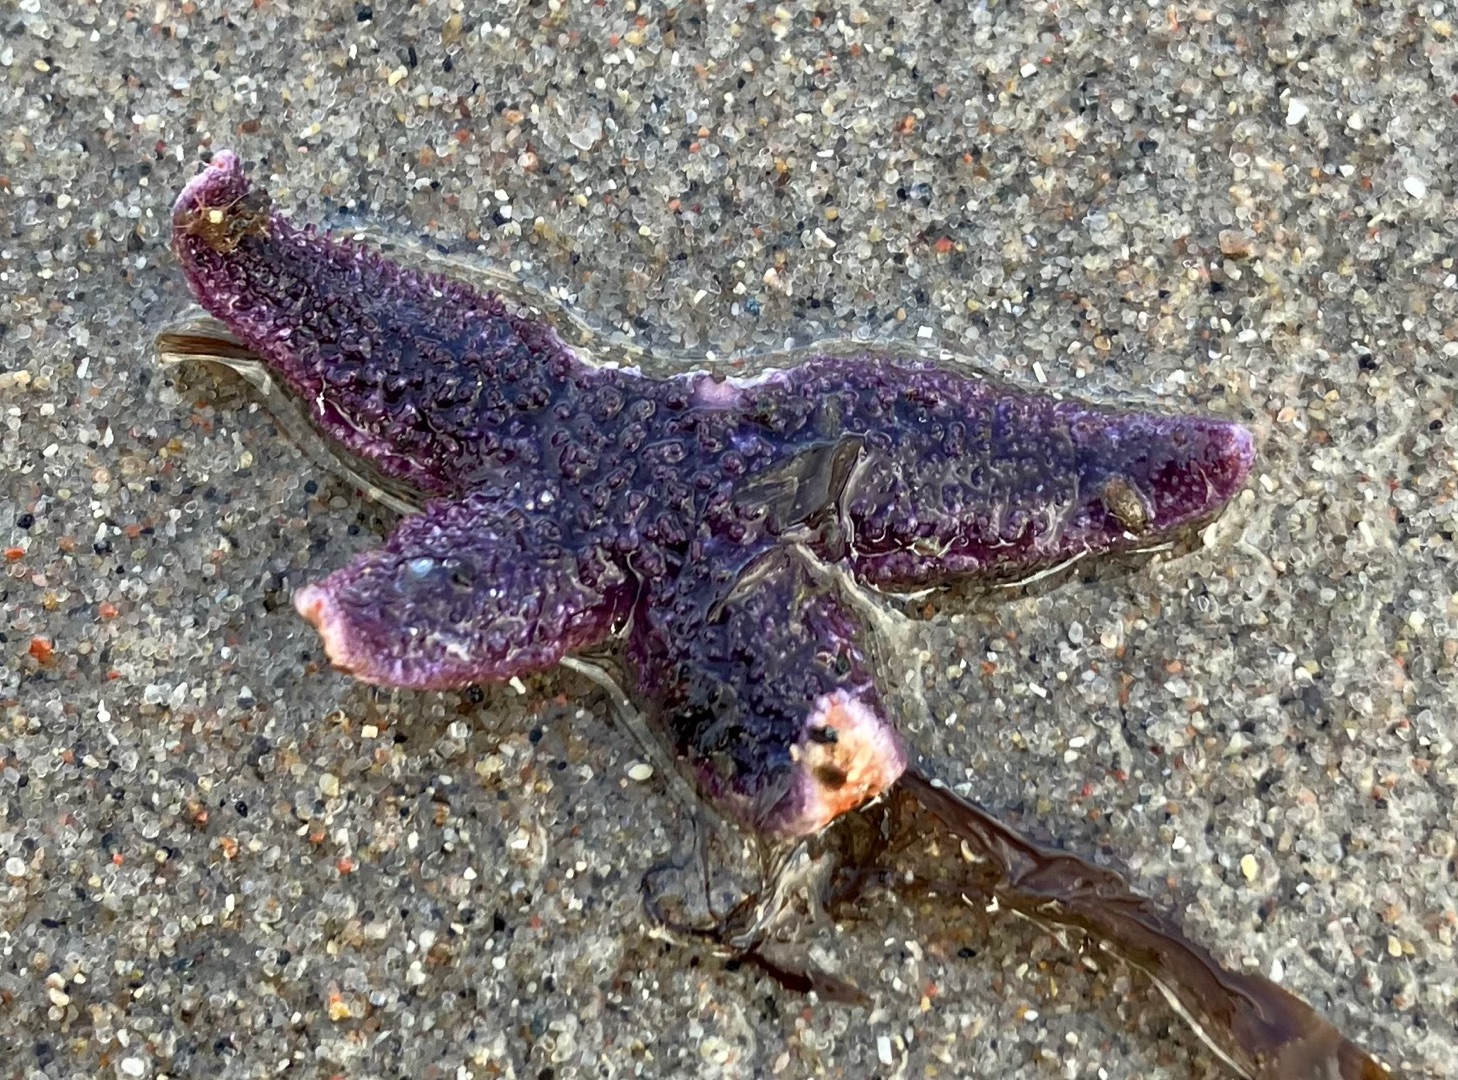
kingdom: Animalia
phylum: Echinodermata
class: Asteroidea
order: Forcipulatida
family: Asteriidae
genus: Asterias
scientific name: Asterias rubens
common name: Almindelig søstjerne
